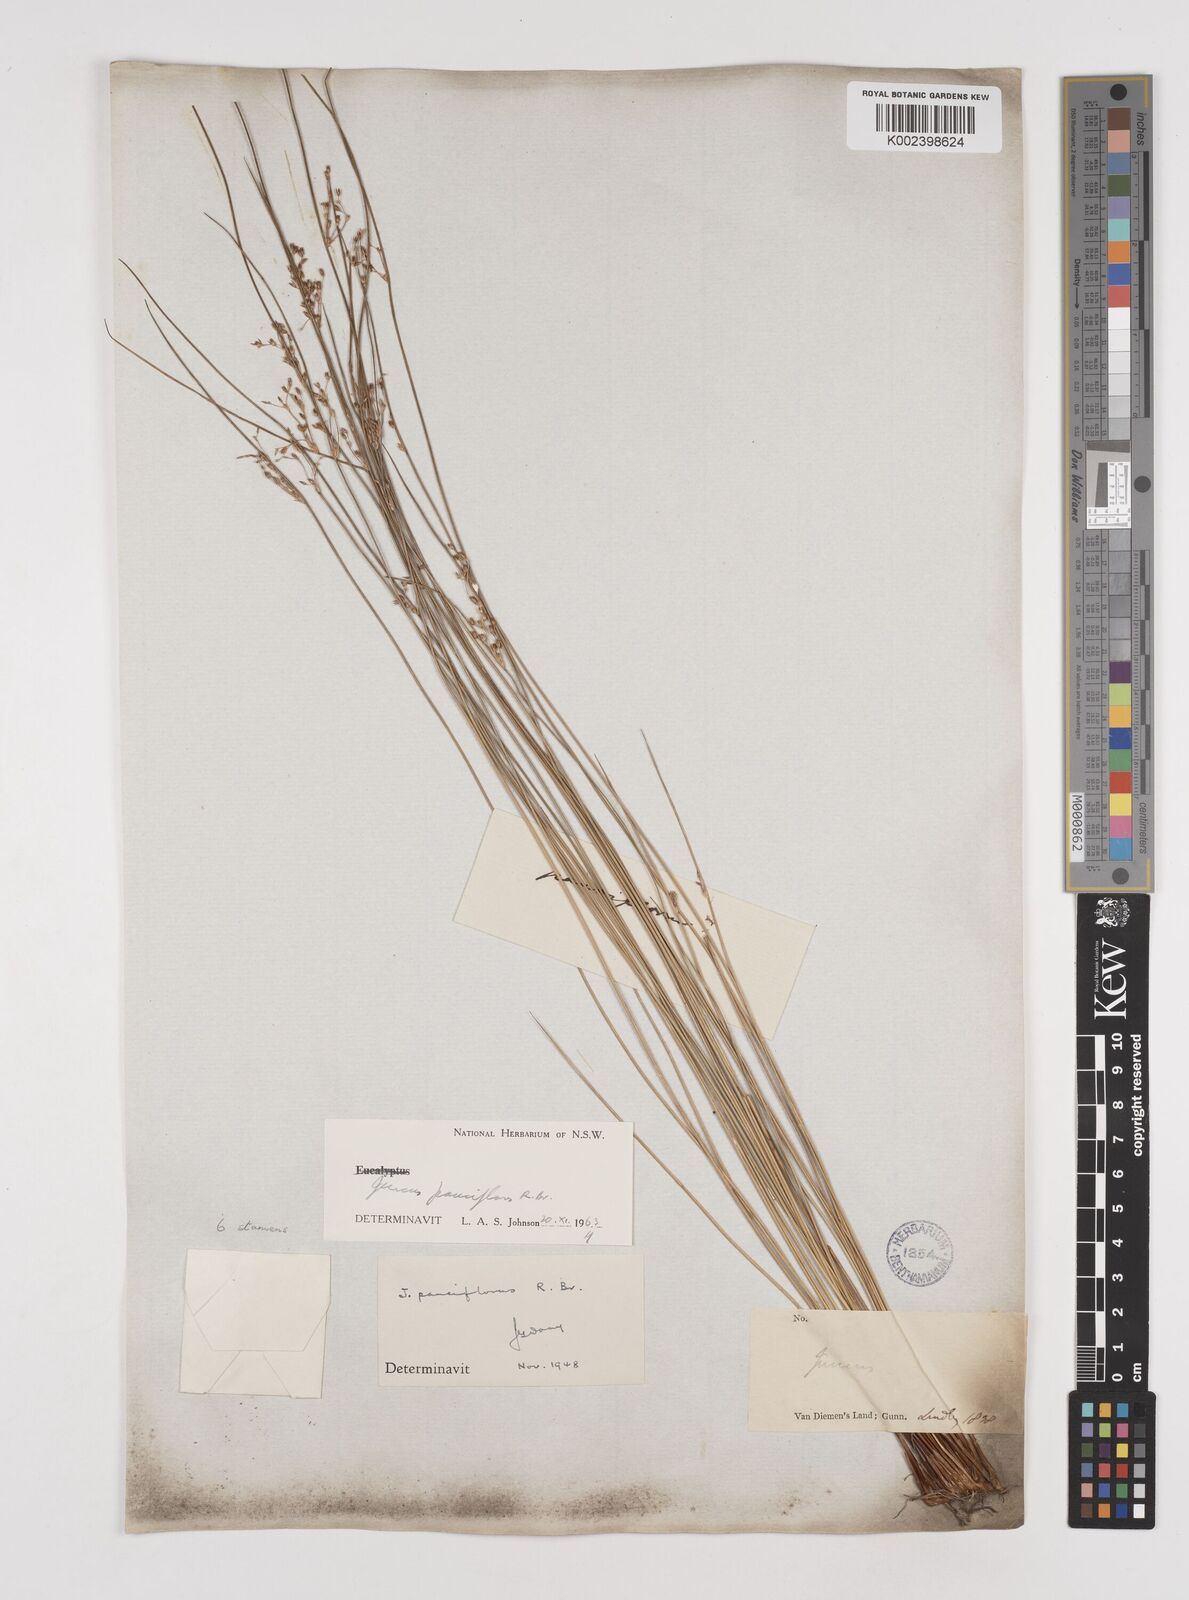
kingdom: Plantae
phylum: Tracheophyta
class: Liliopsida
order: Poales
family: Juncaceae
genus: Juncus
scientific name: Juncus pauciflorus
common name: Loose-flowered rush
